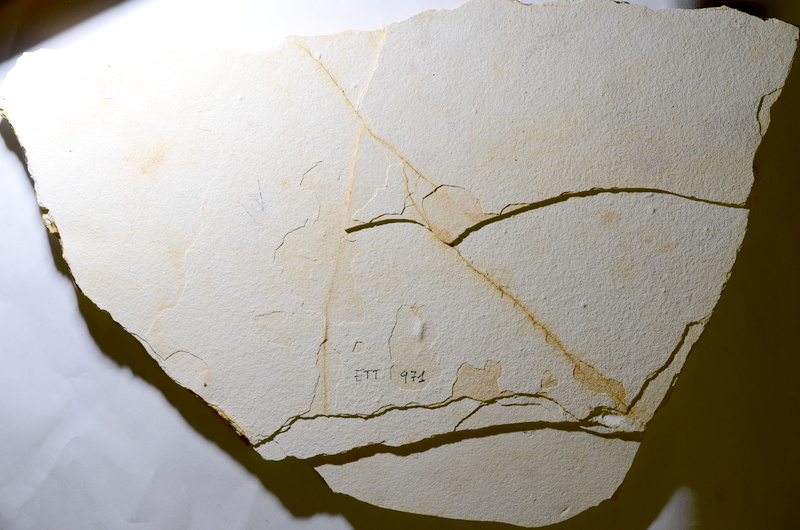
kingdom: Animalia
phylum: Chordata
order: Salmoniformes
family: Orthogonikleithridae
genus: Orthogonikleithrus
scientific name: Orthogonikleithrus hoelli
